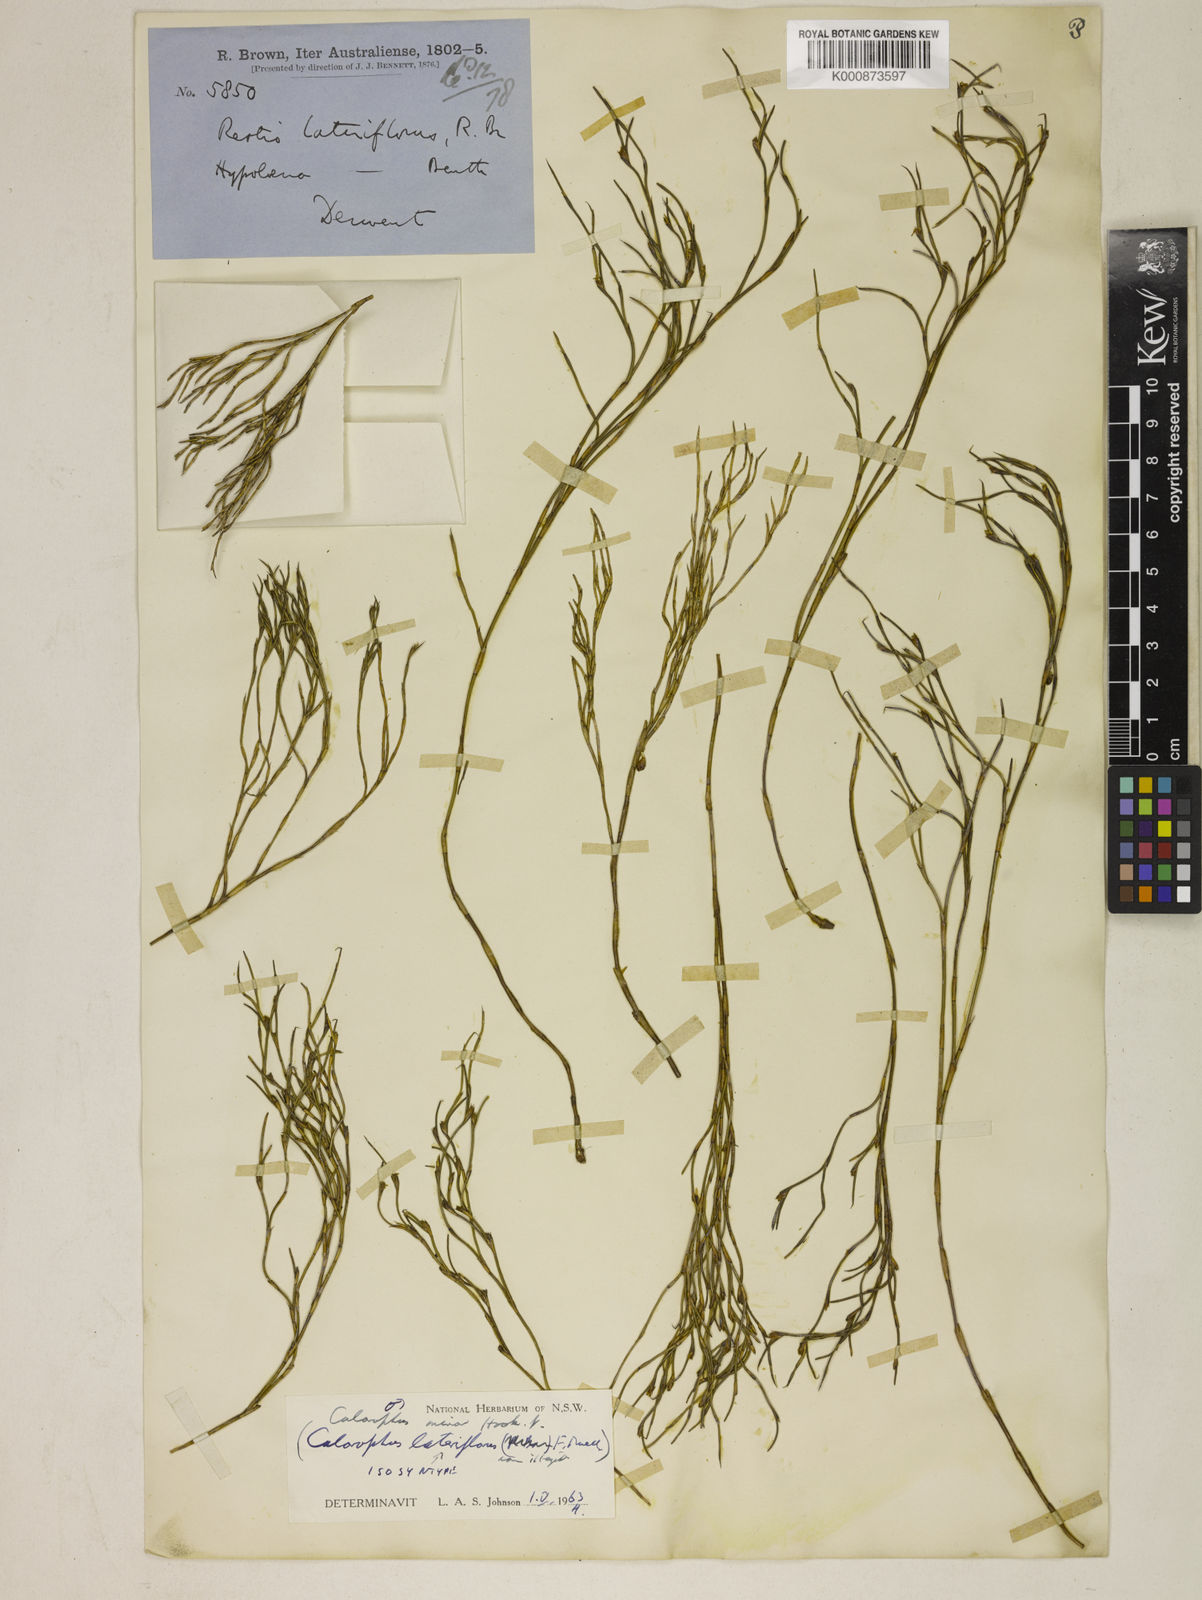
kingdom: Plantae
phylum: Tracheophyta
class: Liliopsida
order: Poales
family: Restionaceae
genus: Empodisma
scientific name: Empodisma minus
